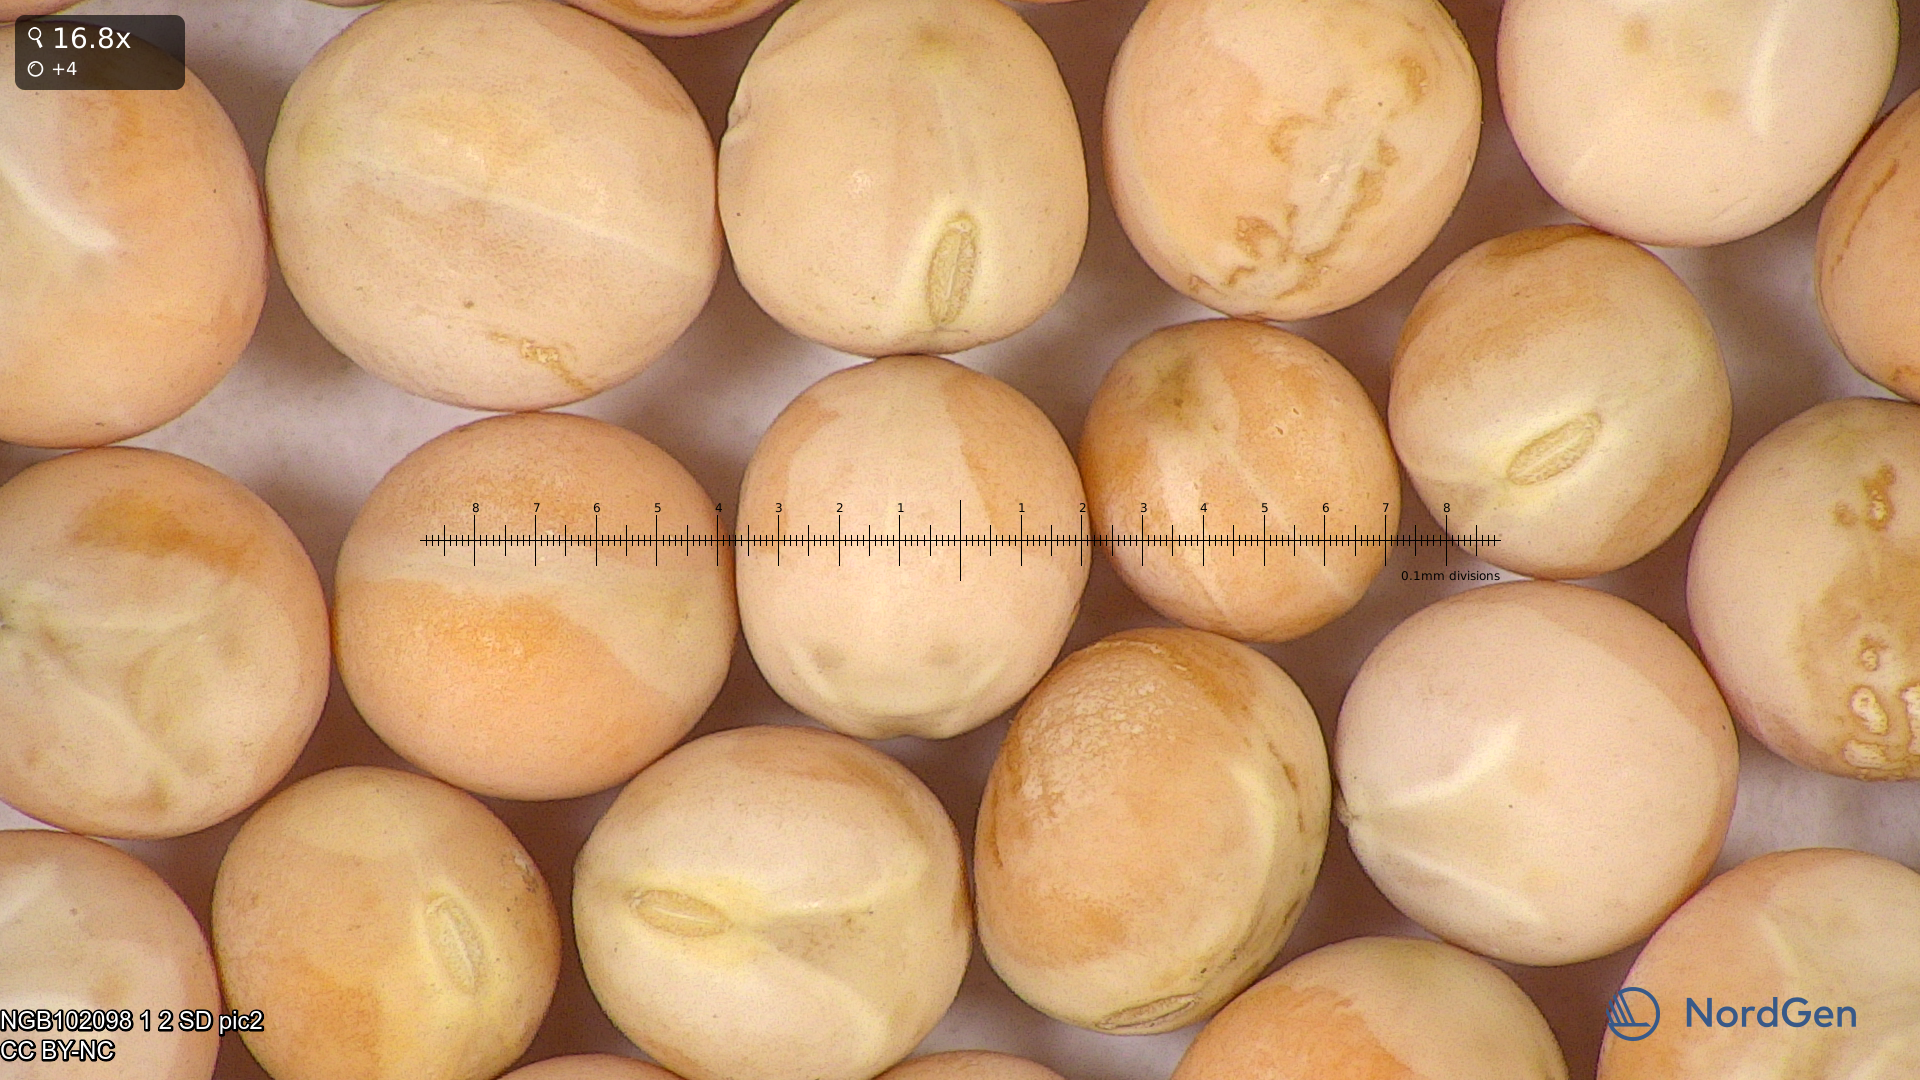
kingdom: Plantae
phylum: Tracheophyta
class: Magnoliopsida
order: Fabales
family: Fabaceae
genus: Lathyrus
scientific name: Lathyrus oleraceus
